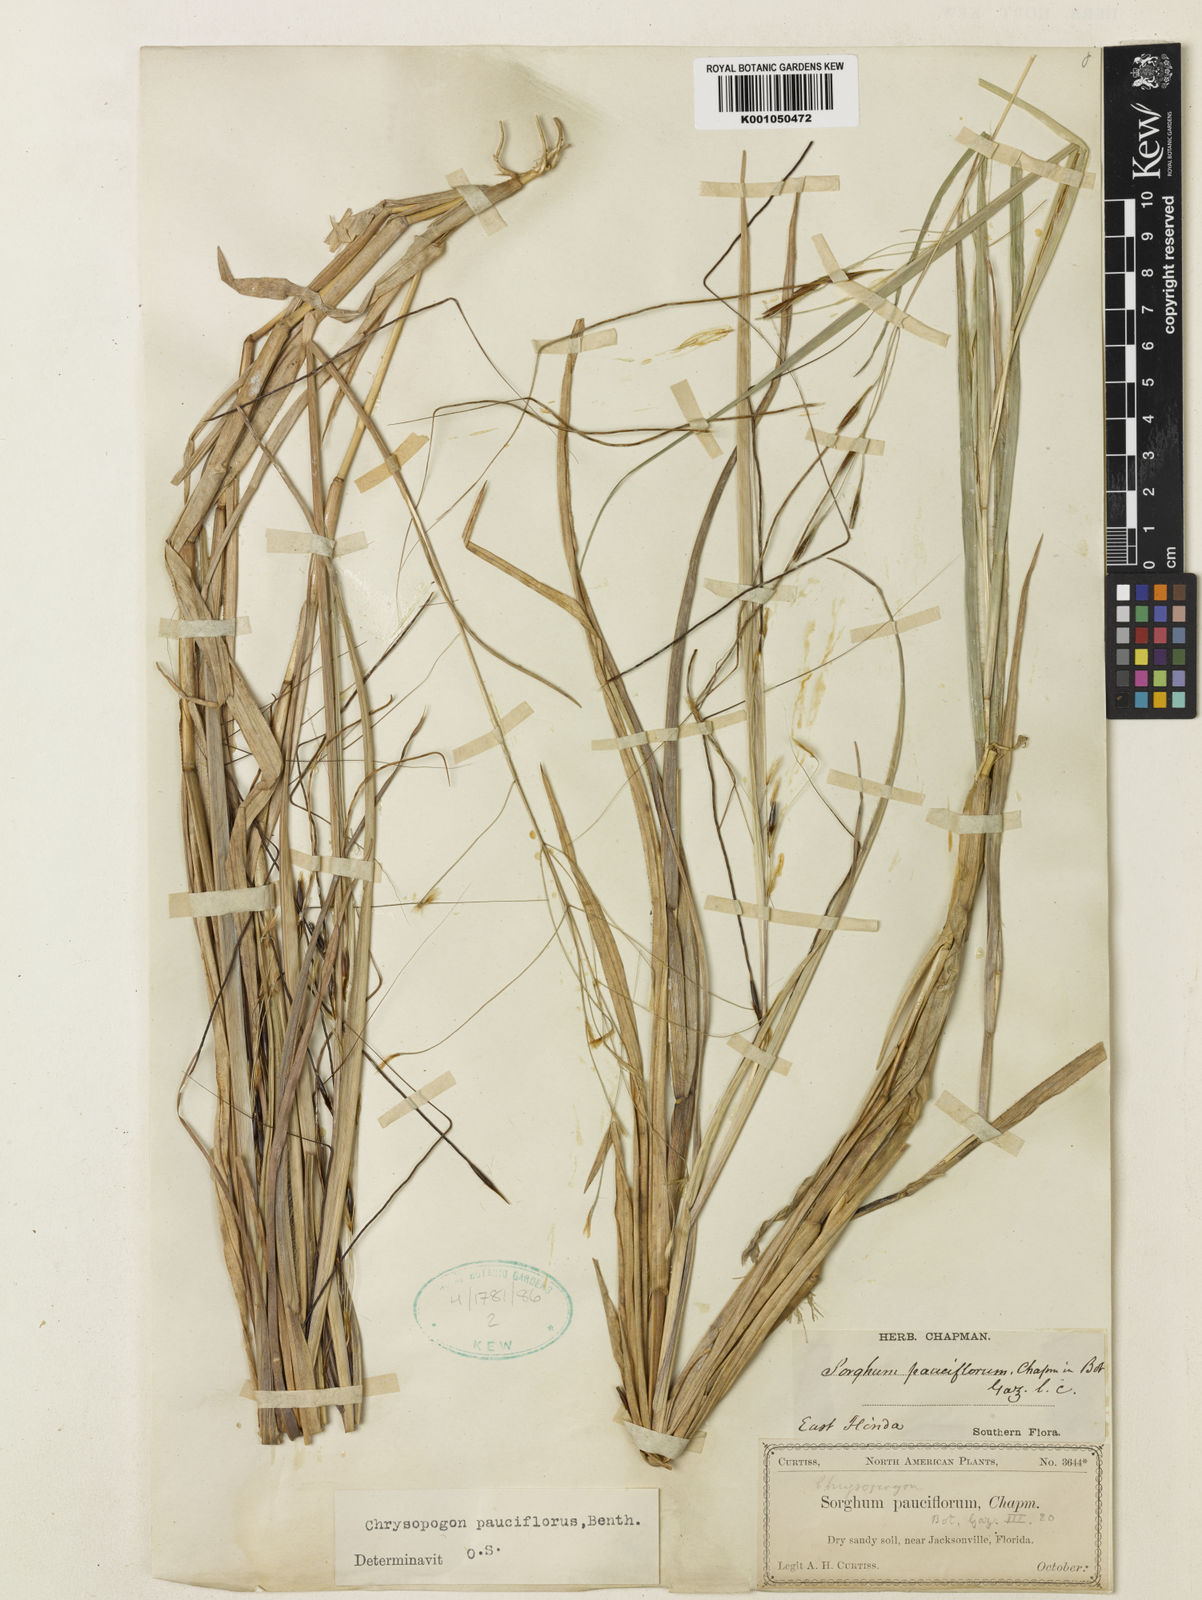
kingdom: Plantae
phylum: Tracheophyta
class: Liliopsida
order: Poales
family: Poaceae
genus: Chrysopogon
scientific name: Chrysopogon pauciflorus
